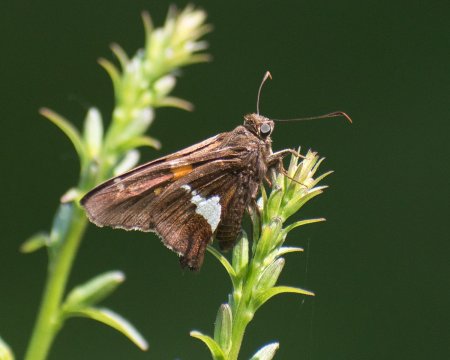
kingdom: Animalia
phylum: Arthropoda
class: Insecta
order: Lepidoptera
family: Hesperiidae
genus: Epargyreus
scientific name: Epargyreus clarus
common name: Silver-spotted Skipper
